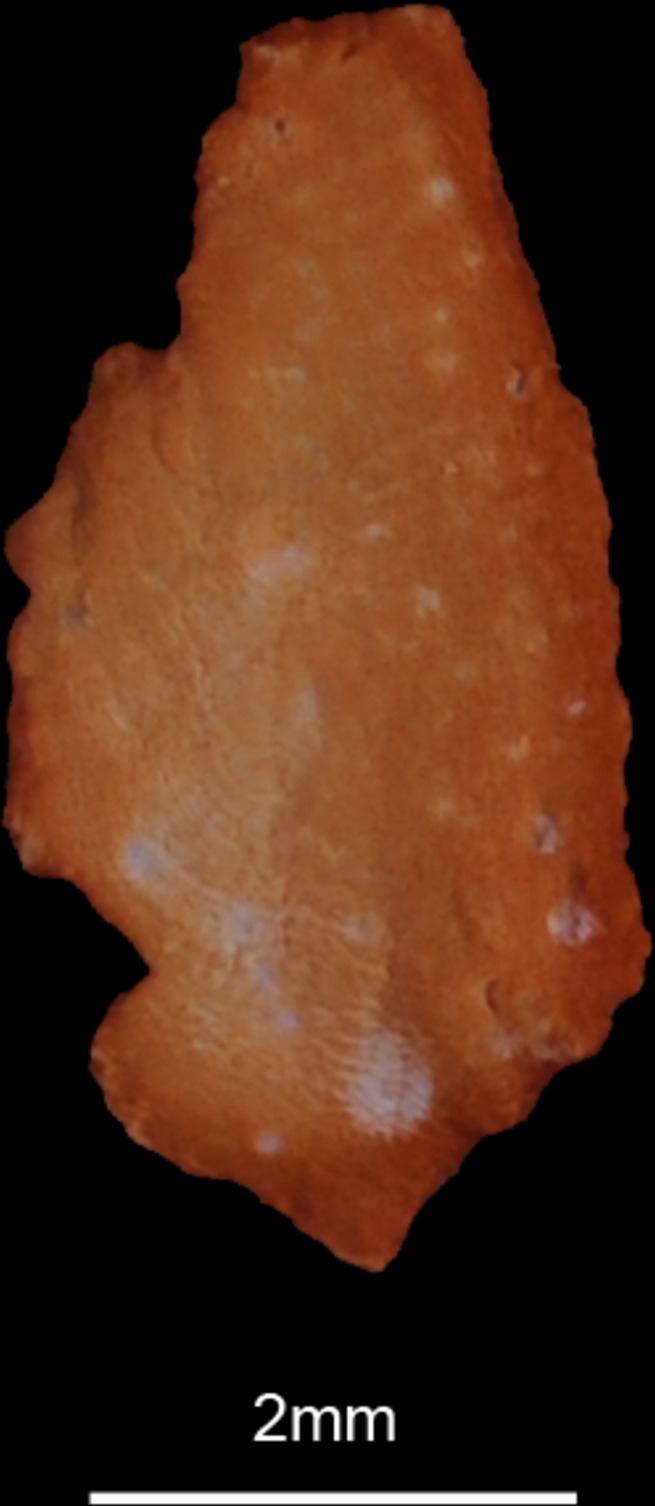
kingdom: Animalia
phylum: Chordata
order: Perciformes
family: Carangidae
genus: Carangoides
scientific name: Carangoides fulvoguttatus
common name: Yellowspotted trevally
